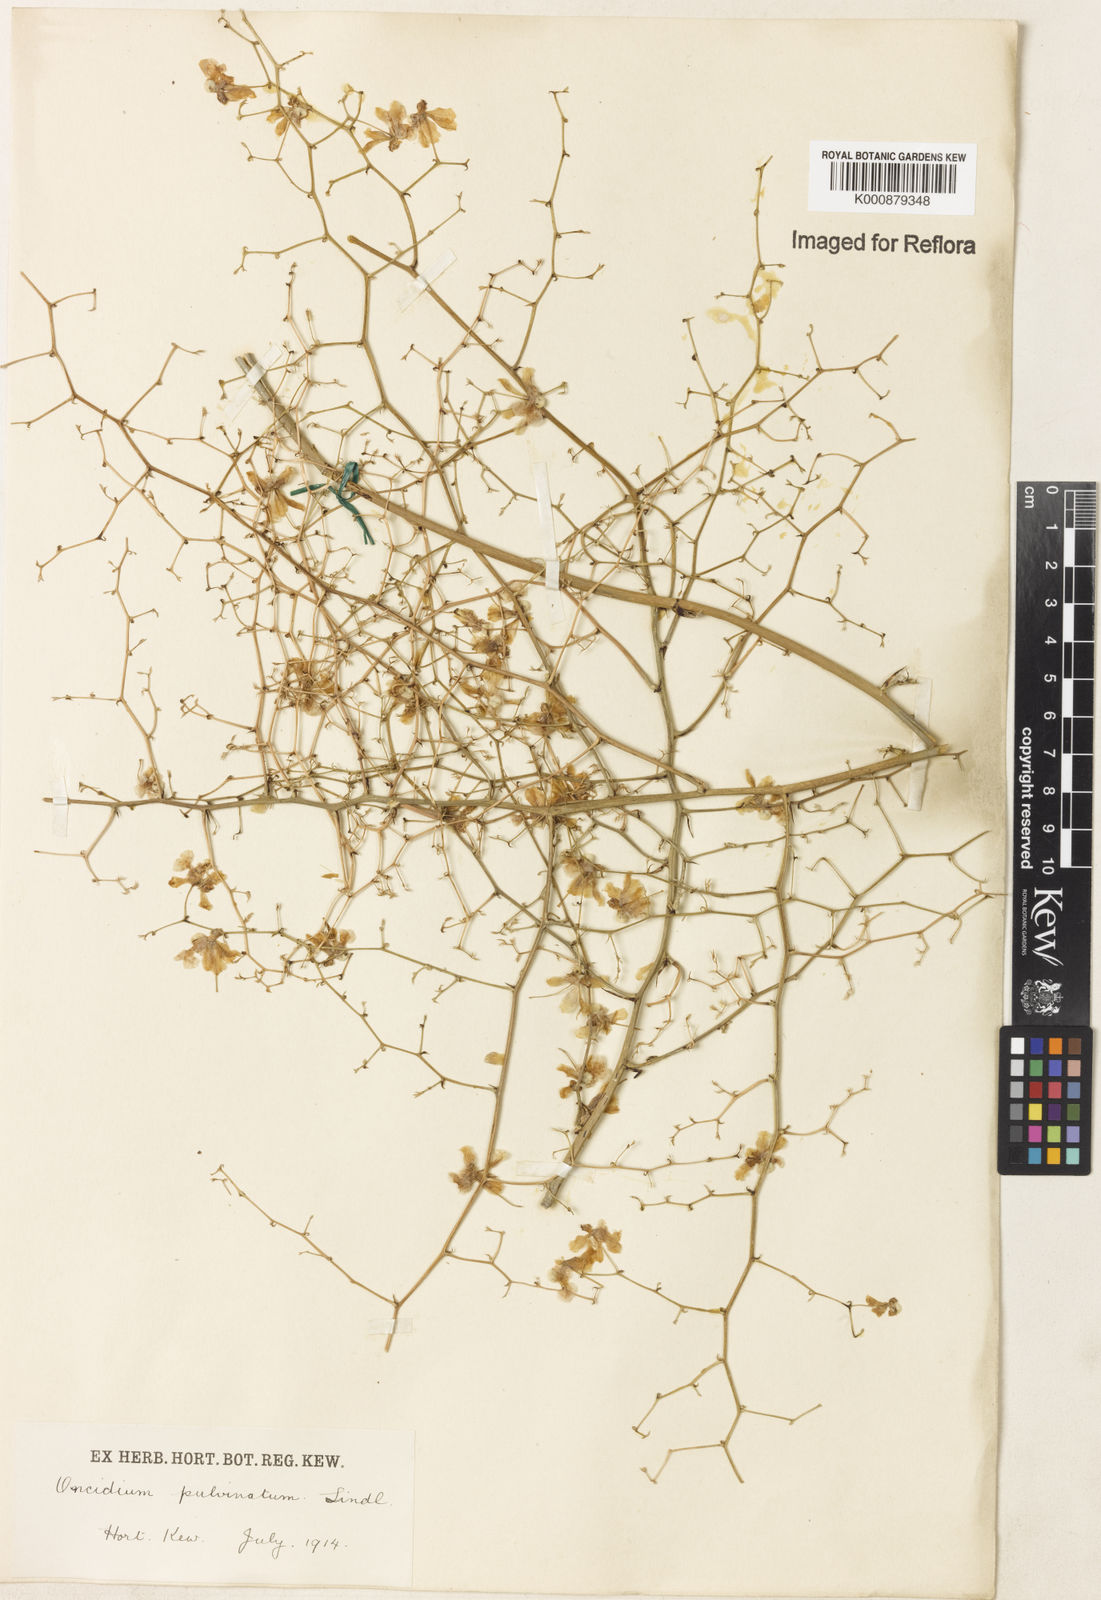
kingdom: Plantae
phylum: Tracheophyta
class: Liliopsida
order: Asparagales
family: Orchidaceae
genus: Grandiphyllum
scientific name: Grandiphyllum divaricatum
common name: Mule-ear orchid
